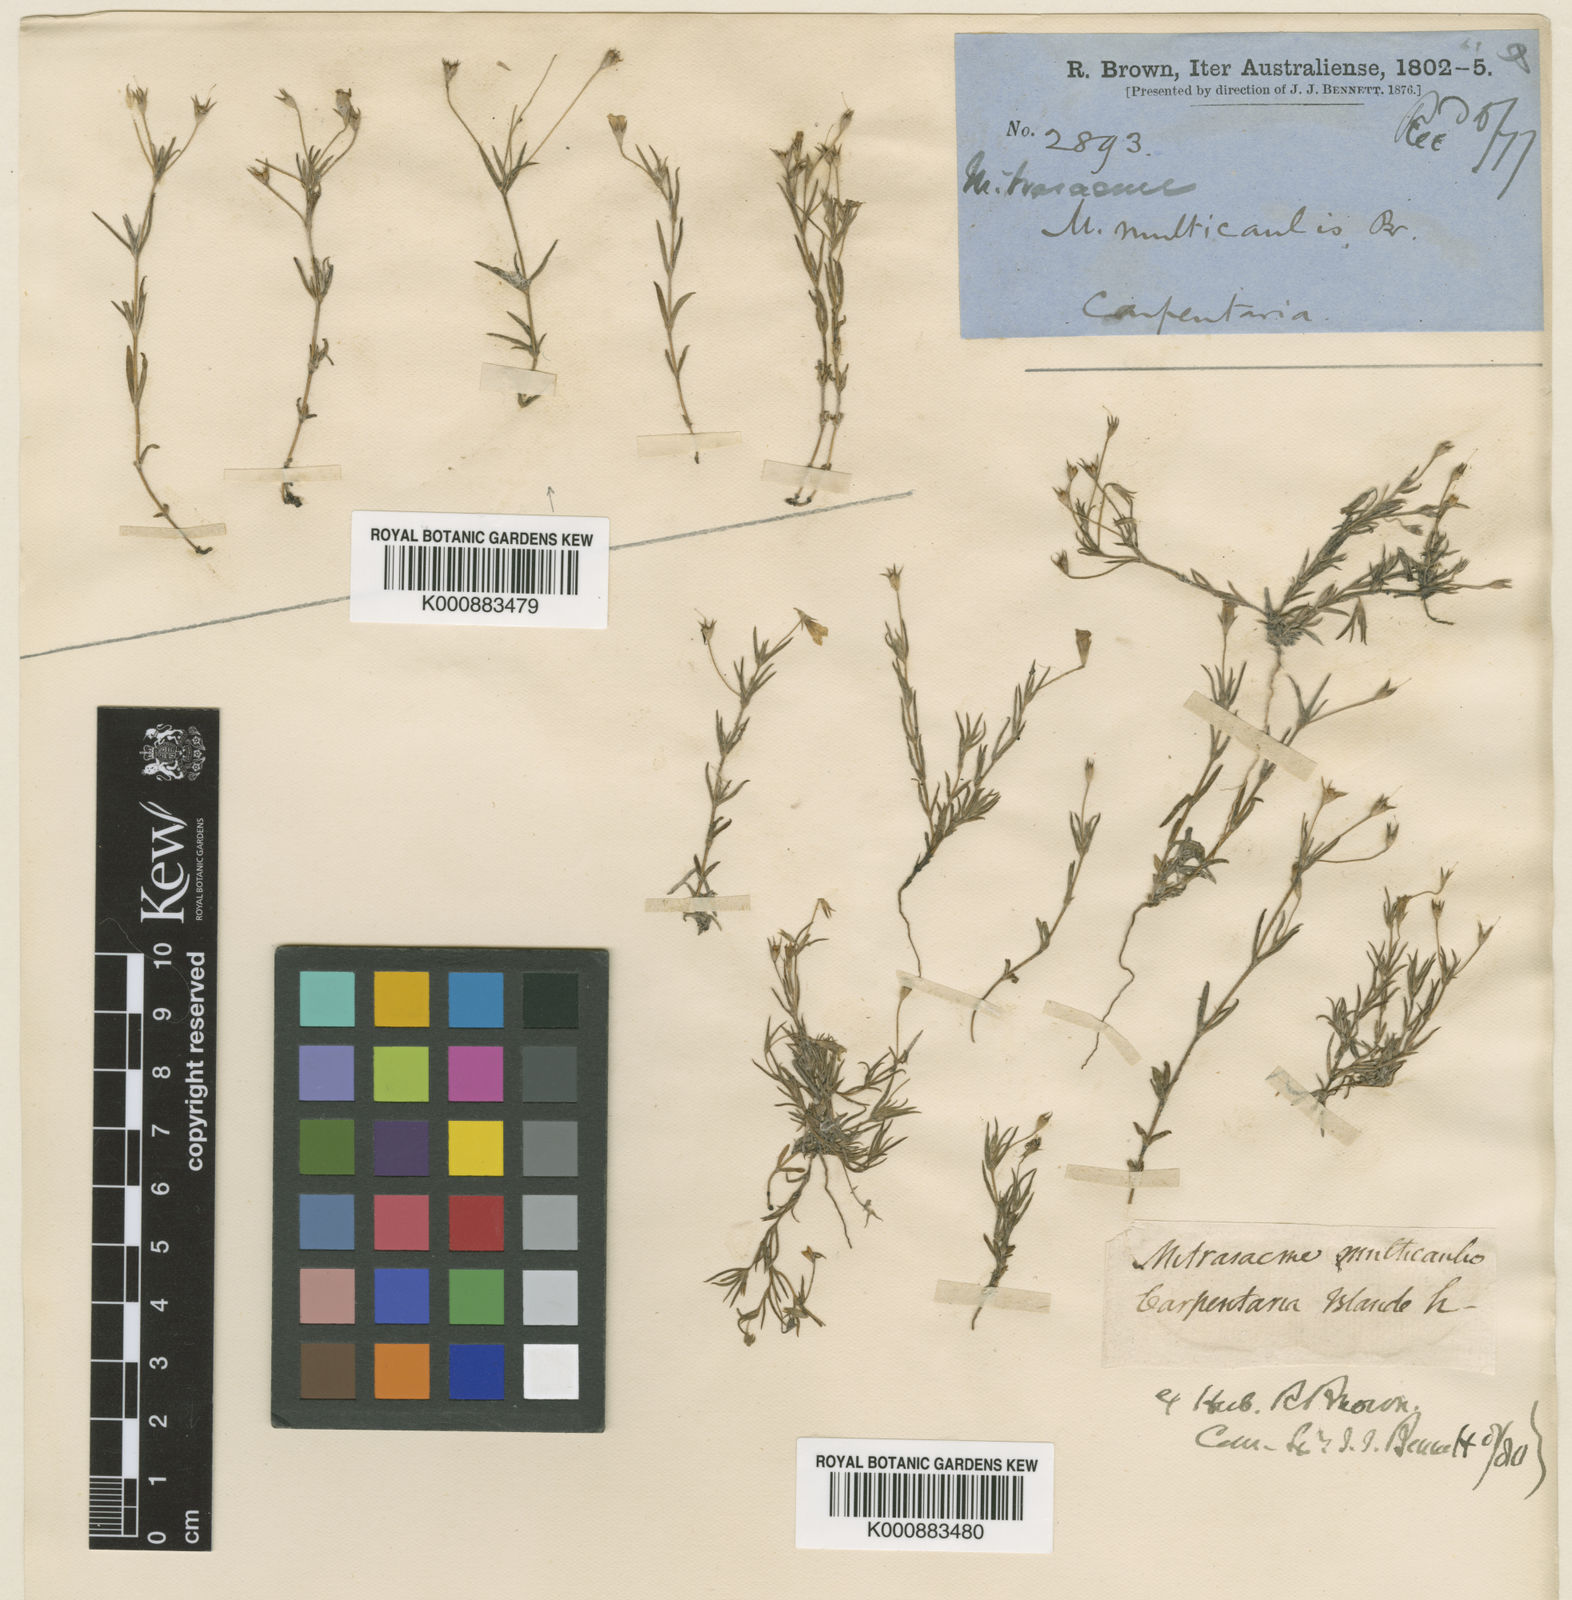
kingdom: Plantae
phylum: Tracheophyta
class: Magnoliopsida
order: Gentianales
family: Loganiaceae
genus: Mitrasacme
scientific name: Mitrasacme multicaulis
